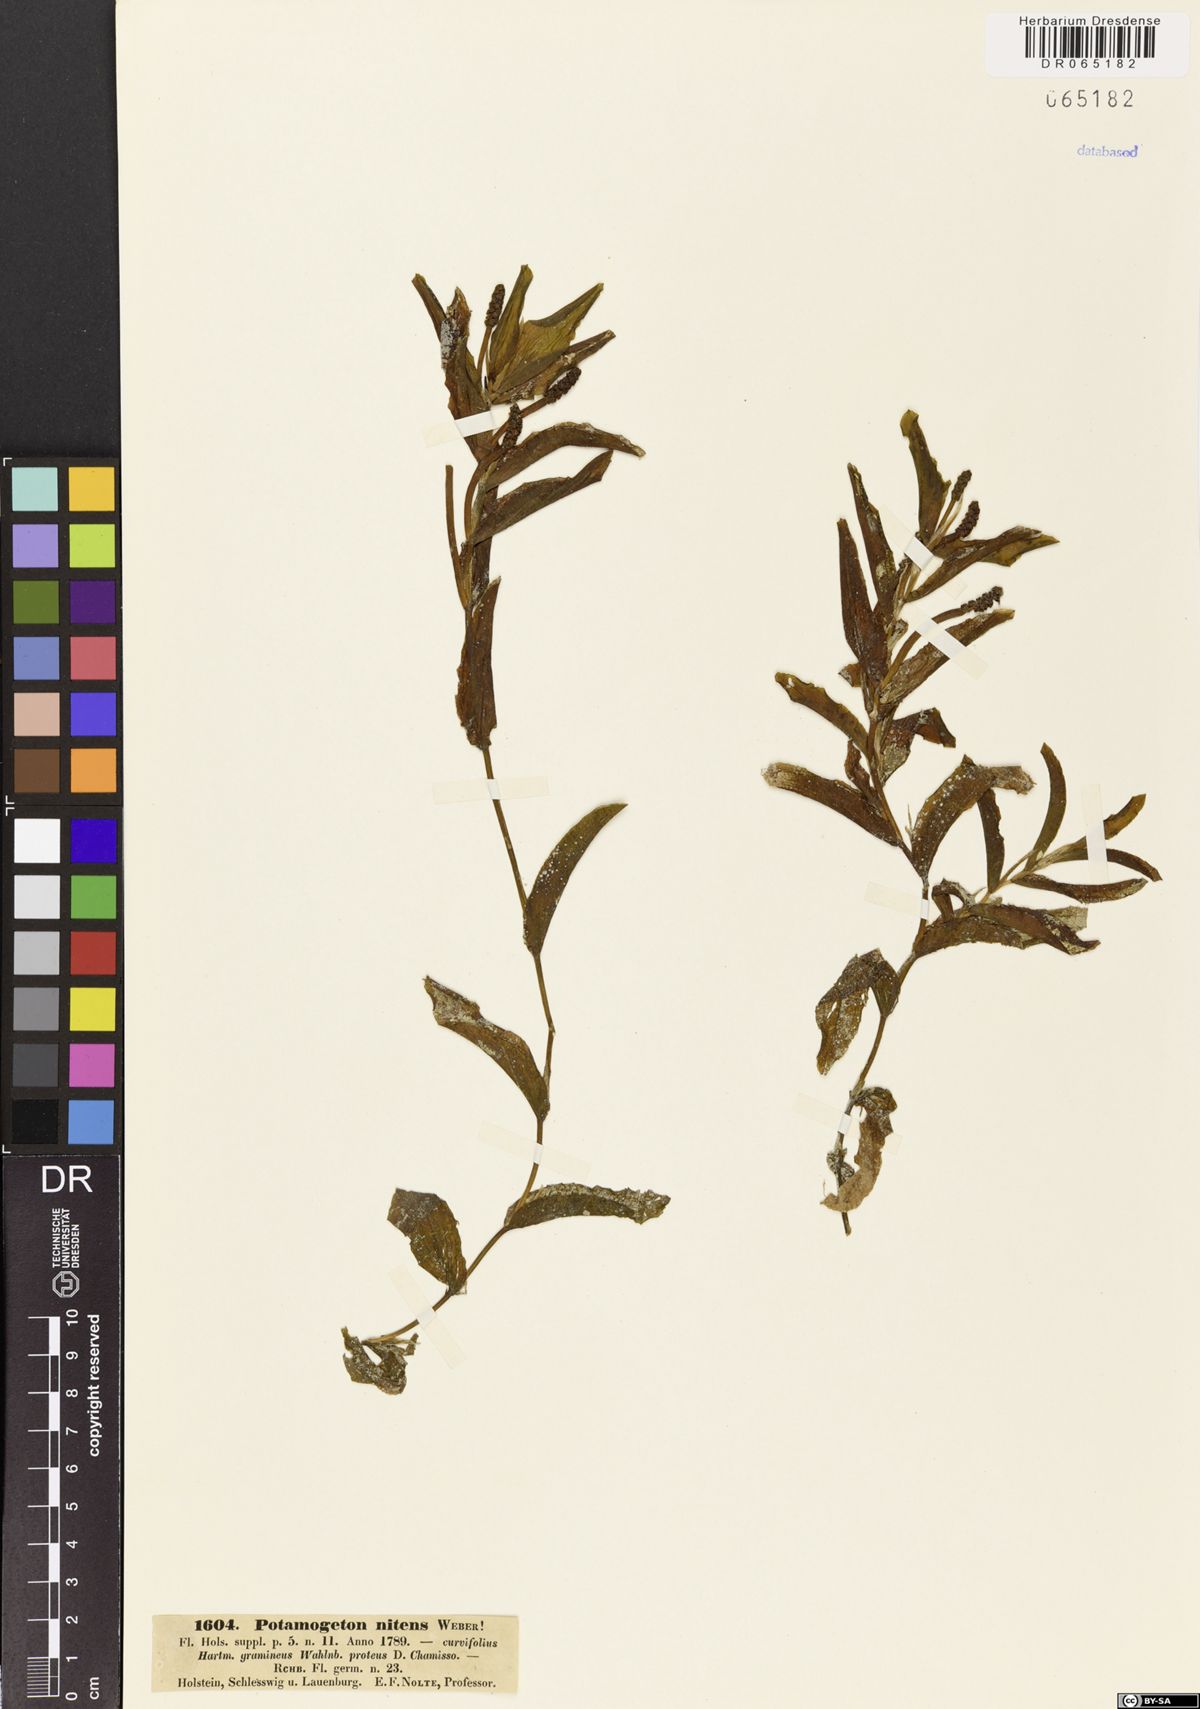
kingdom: Plantae
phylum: Tracheophyta
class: Liliopsida
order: Alismatales
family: Potamogetonaceae
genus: Potamogeton
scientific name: Potamogeton nitens
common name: Pondweed
